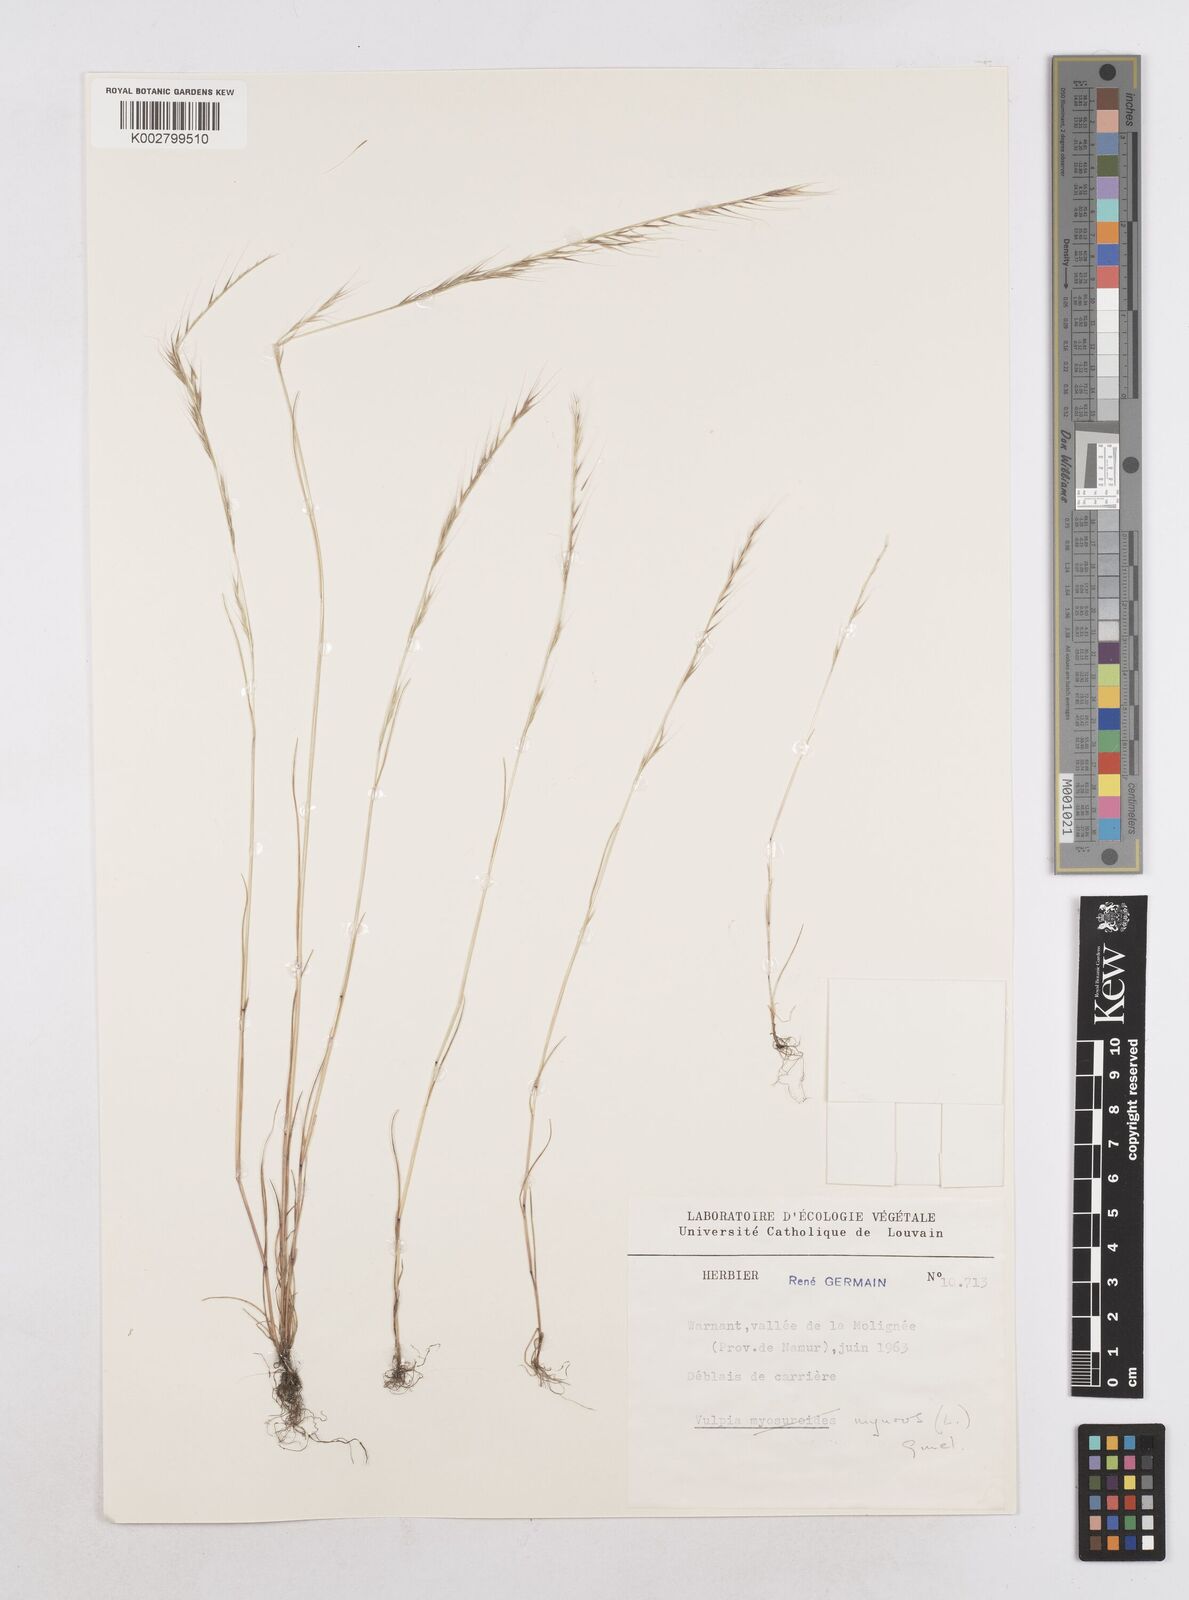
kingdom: Plantae
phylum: Tracheophyta
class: Liliopsida
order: Poales
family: Poaceae
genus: Festuca
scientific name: Festuca myuros
